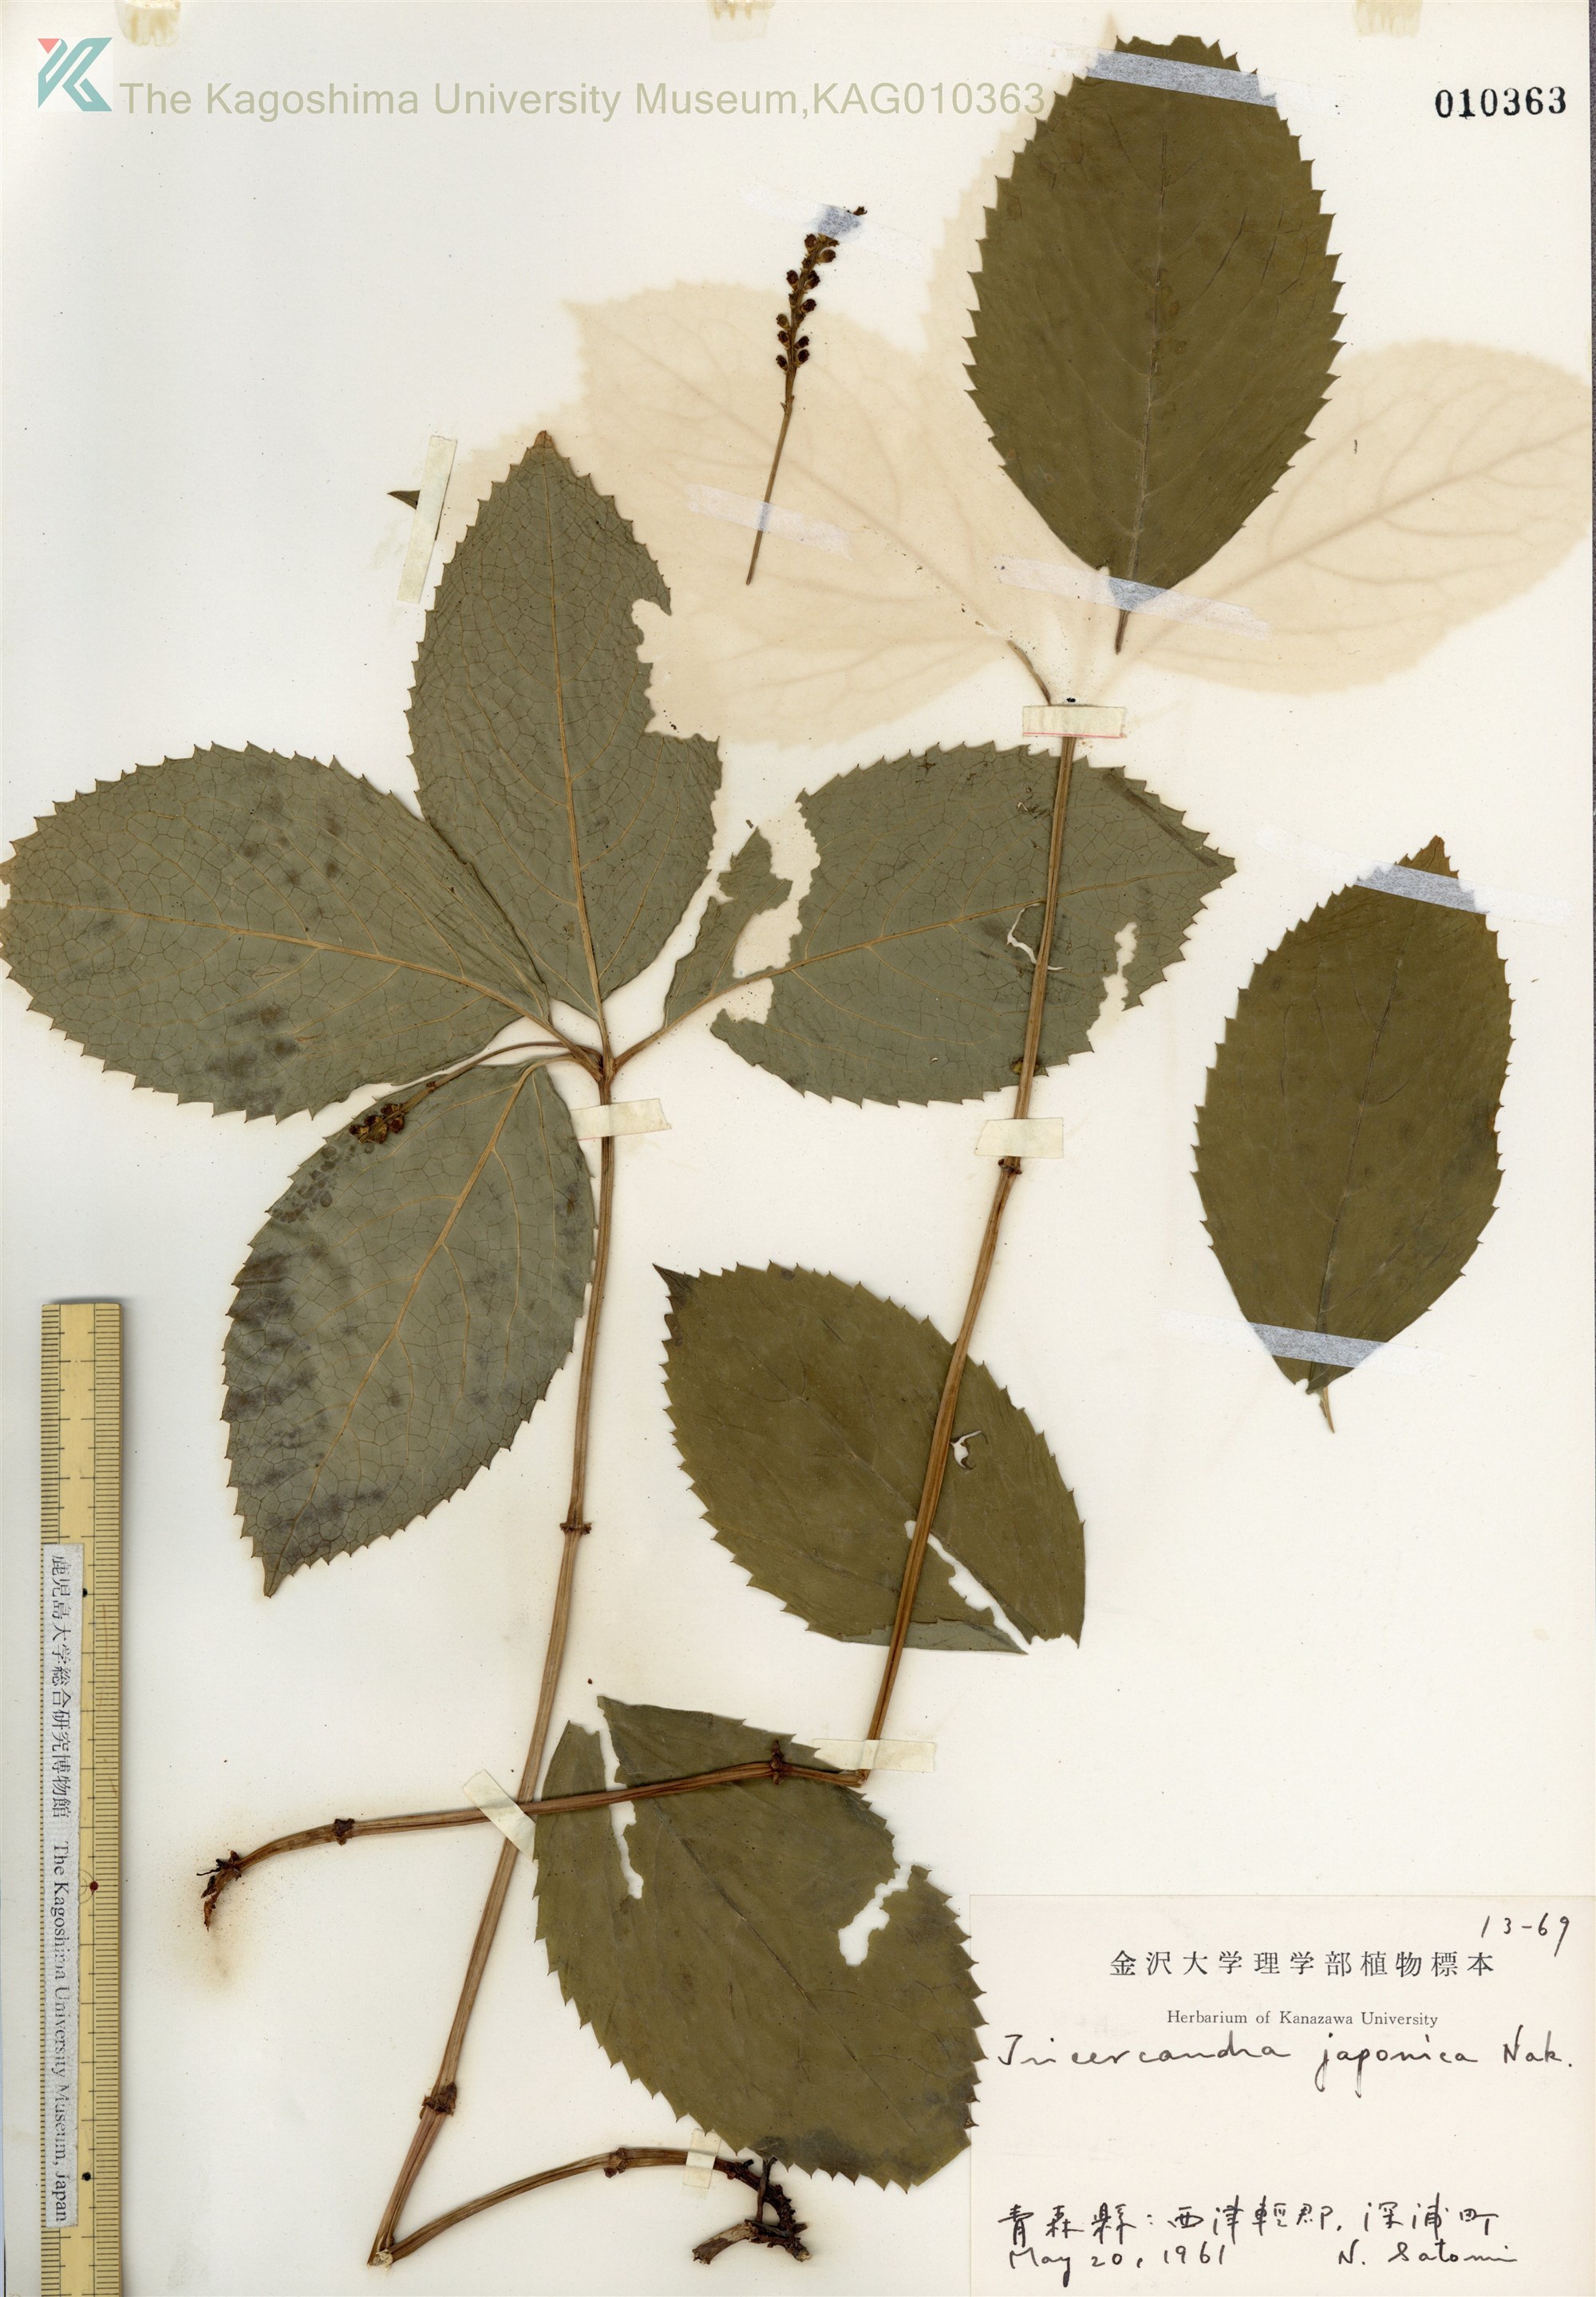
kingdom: Plantae
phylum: Tracheophyta
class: Magnoliopsida
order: Chloranthales
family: Chloranthaceae
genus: Chloranthus
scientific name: Chloranthus japonicus
